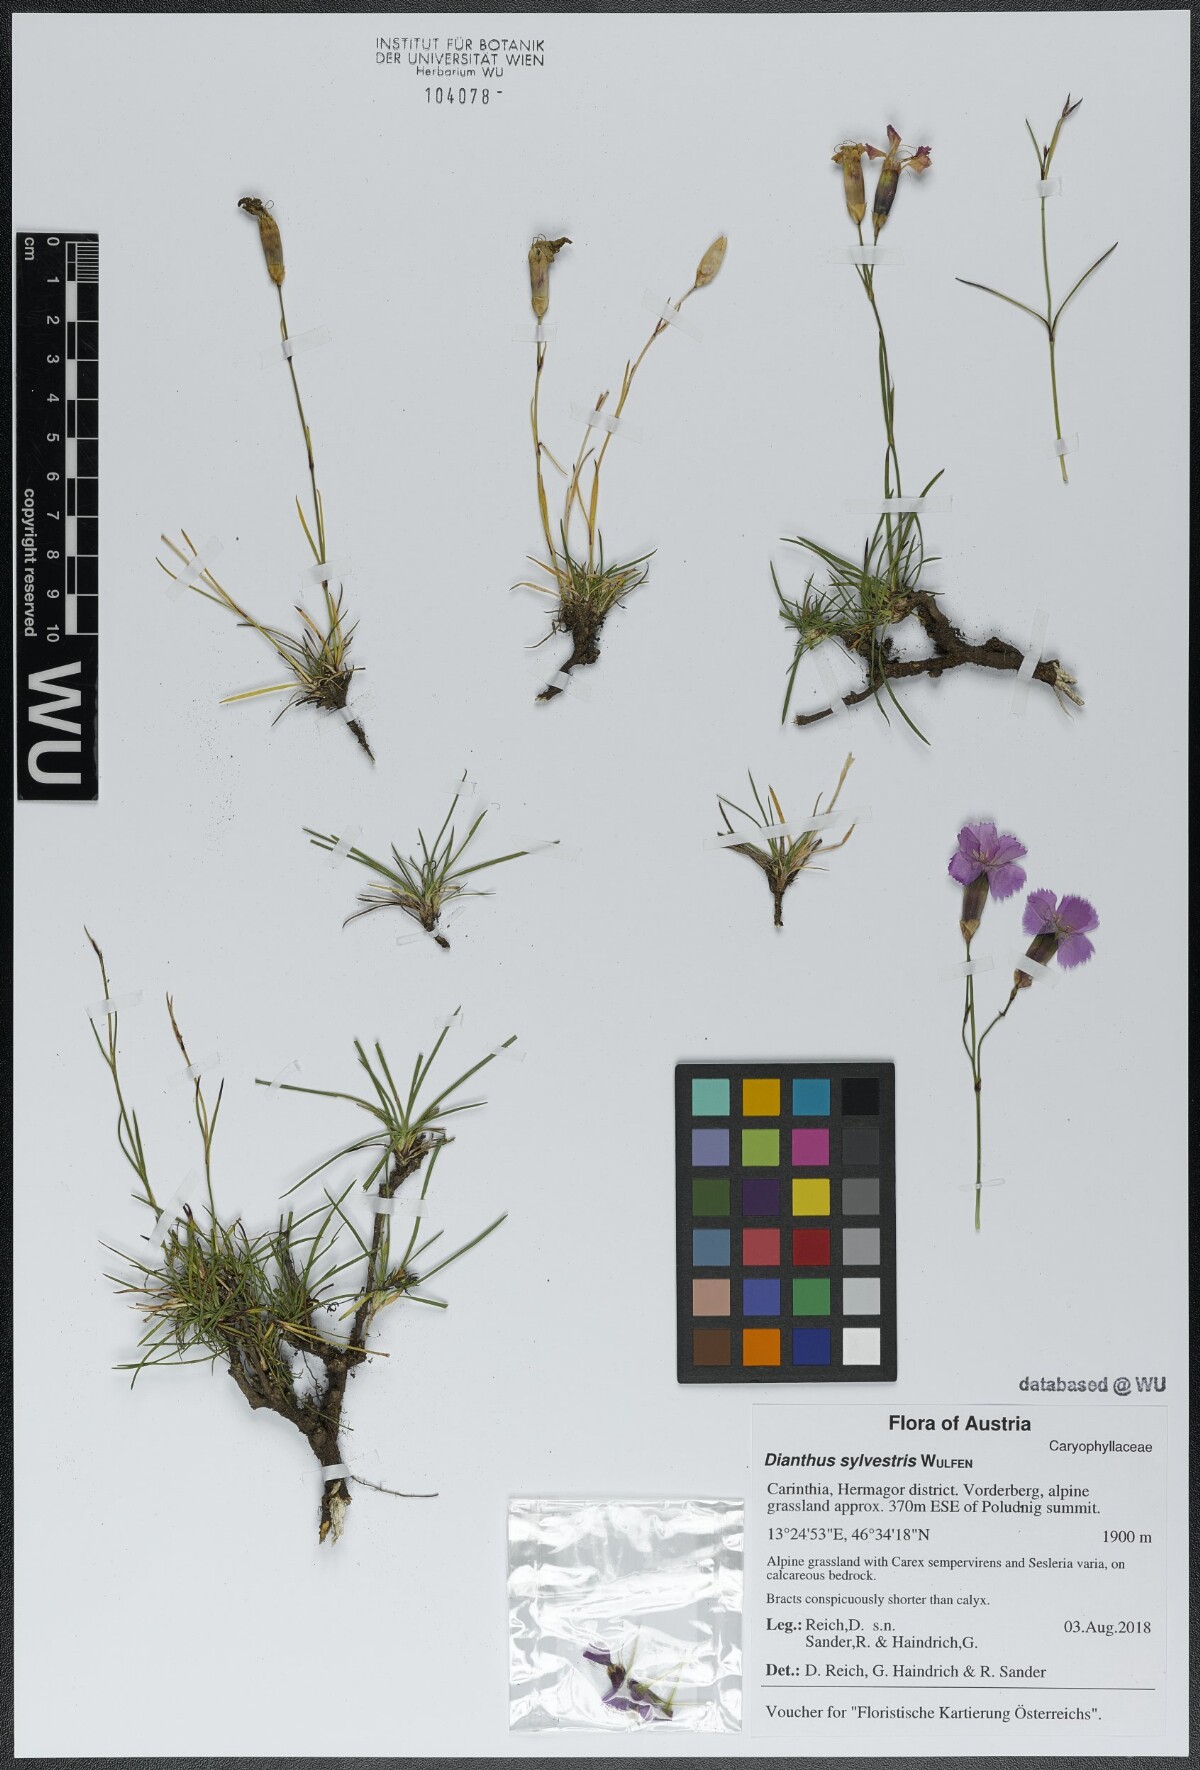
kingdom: Plantae
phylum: Tracheophyta
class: Magnoliopsida
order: Caryophyllales
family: Caryophyllaceae
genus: Dianthus
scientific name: Dianthus sylvestris
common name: Wood pink
